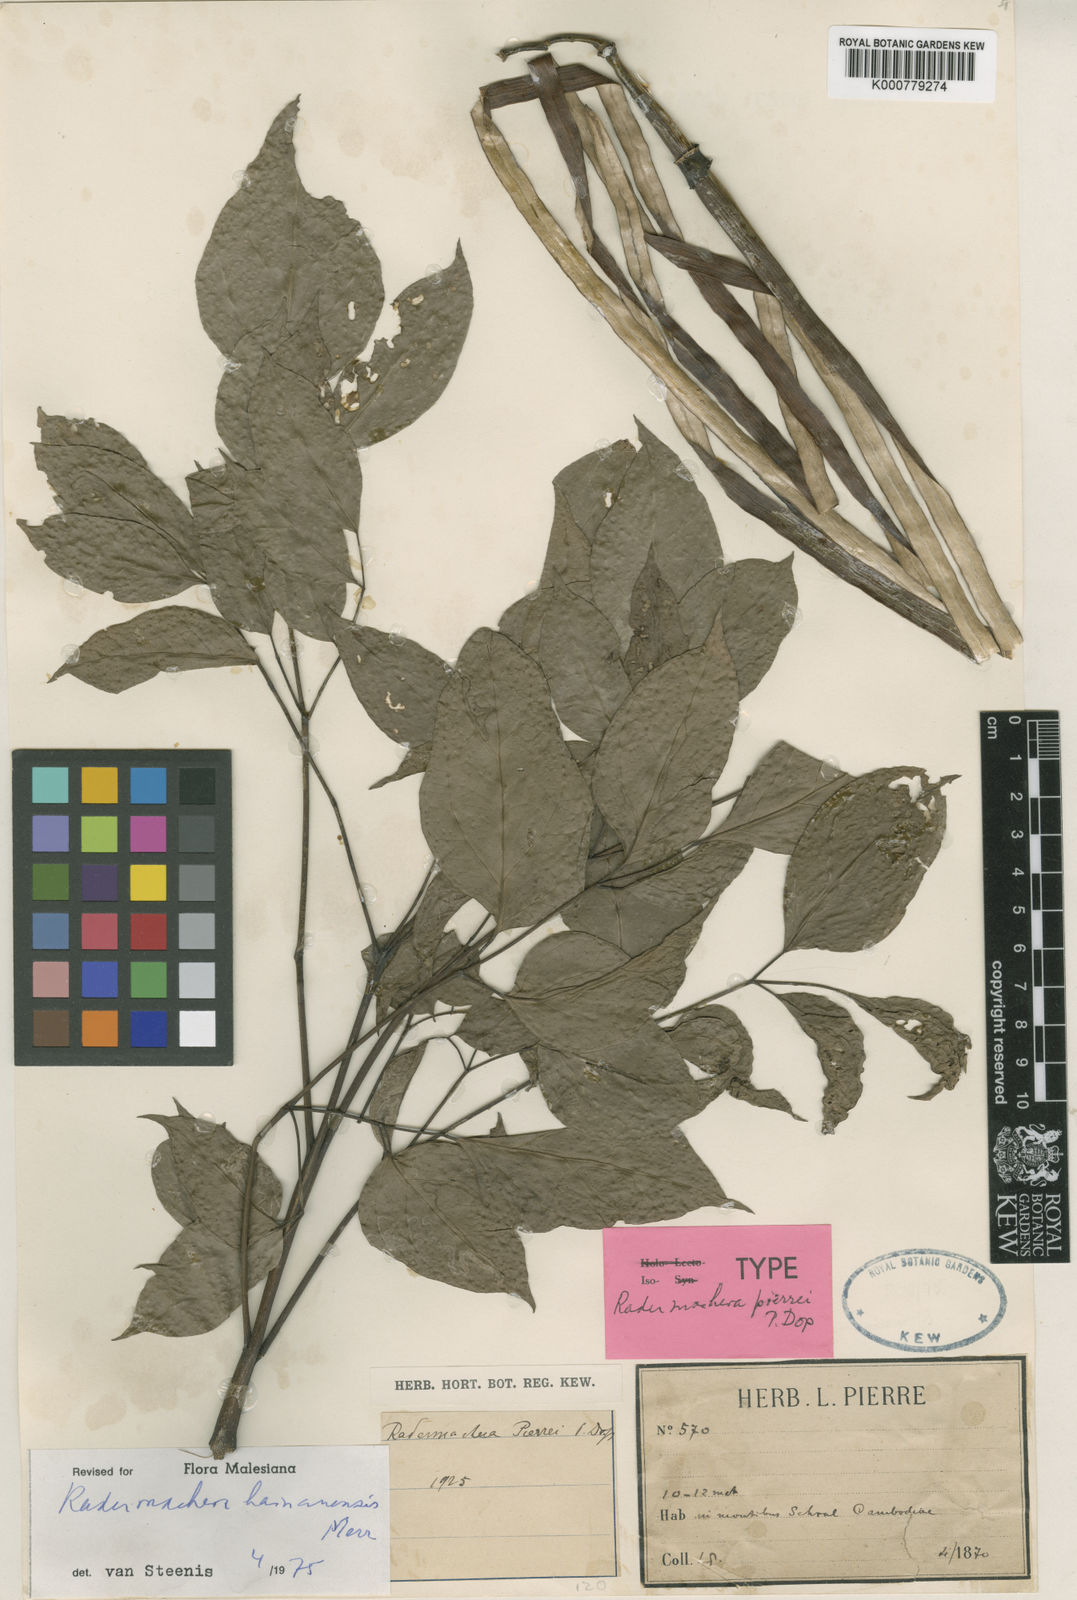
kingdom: Plantae
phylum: Tracheophyta
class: Magnoliopsida
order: Lamiales
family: Bignoniaceae
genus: Radermachera
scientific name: Radermachera hainanensis
